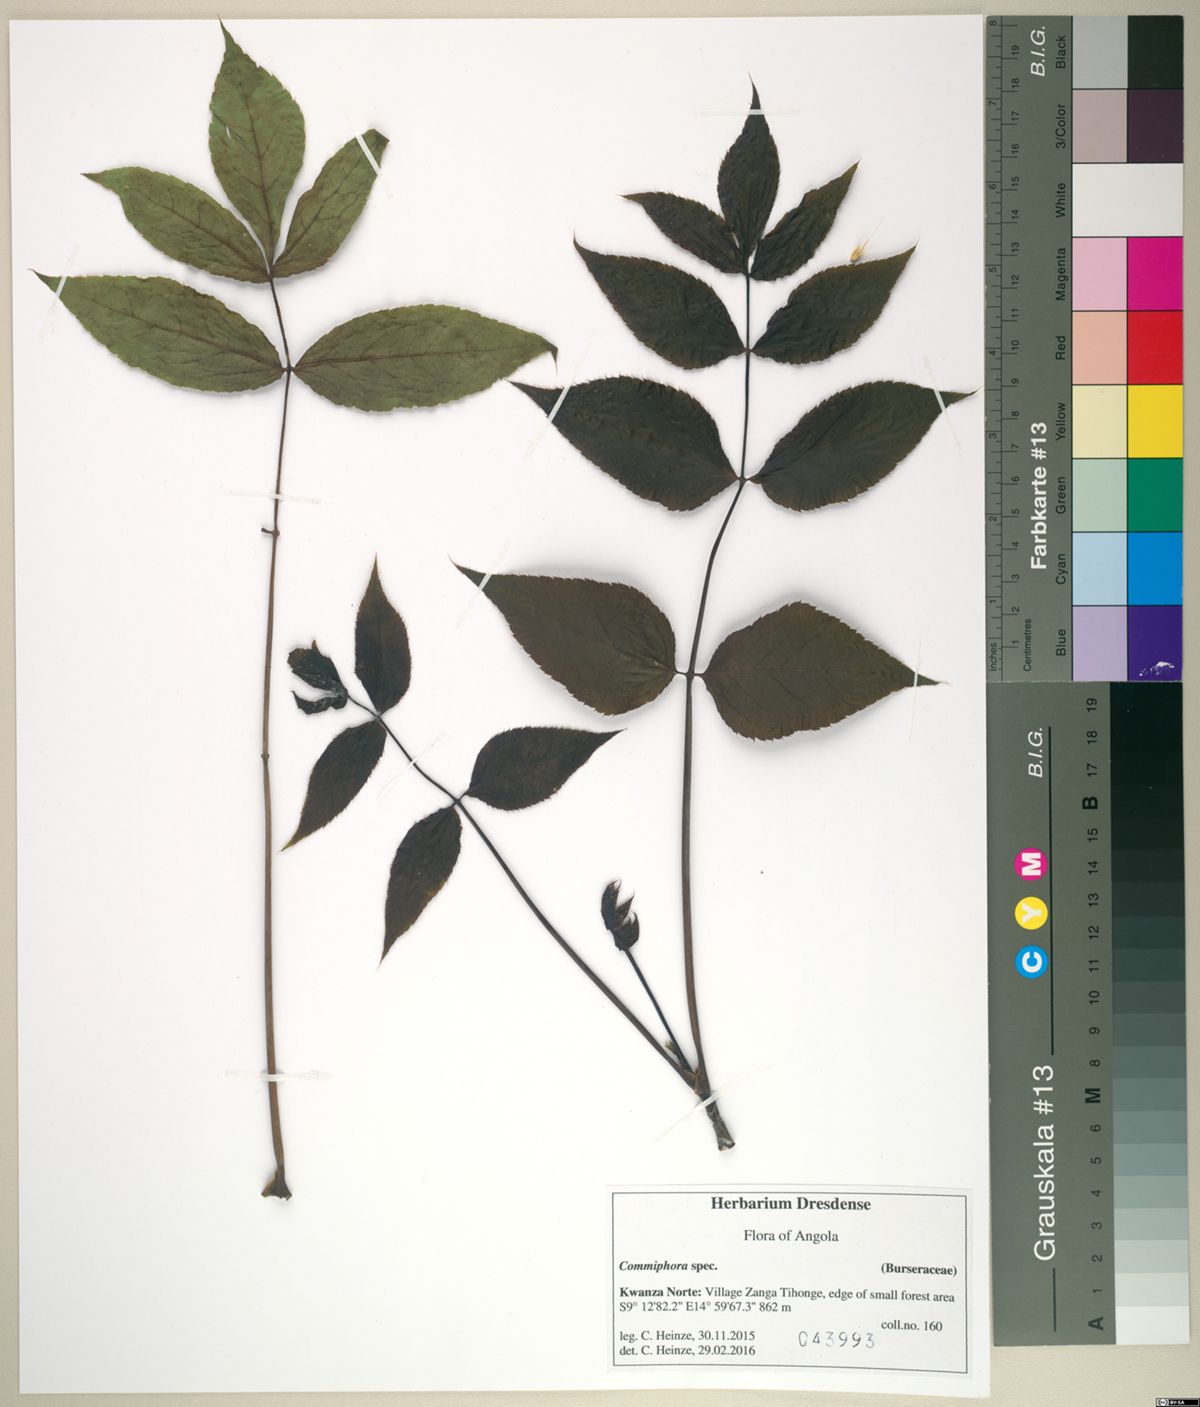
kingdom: Plantae
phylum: Tracheophyta
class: Magnoliopsida
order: Sapindales
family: Burseraceae
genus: Commiphora
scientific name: Commiphora
